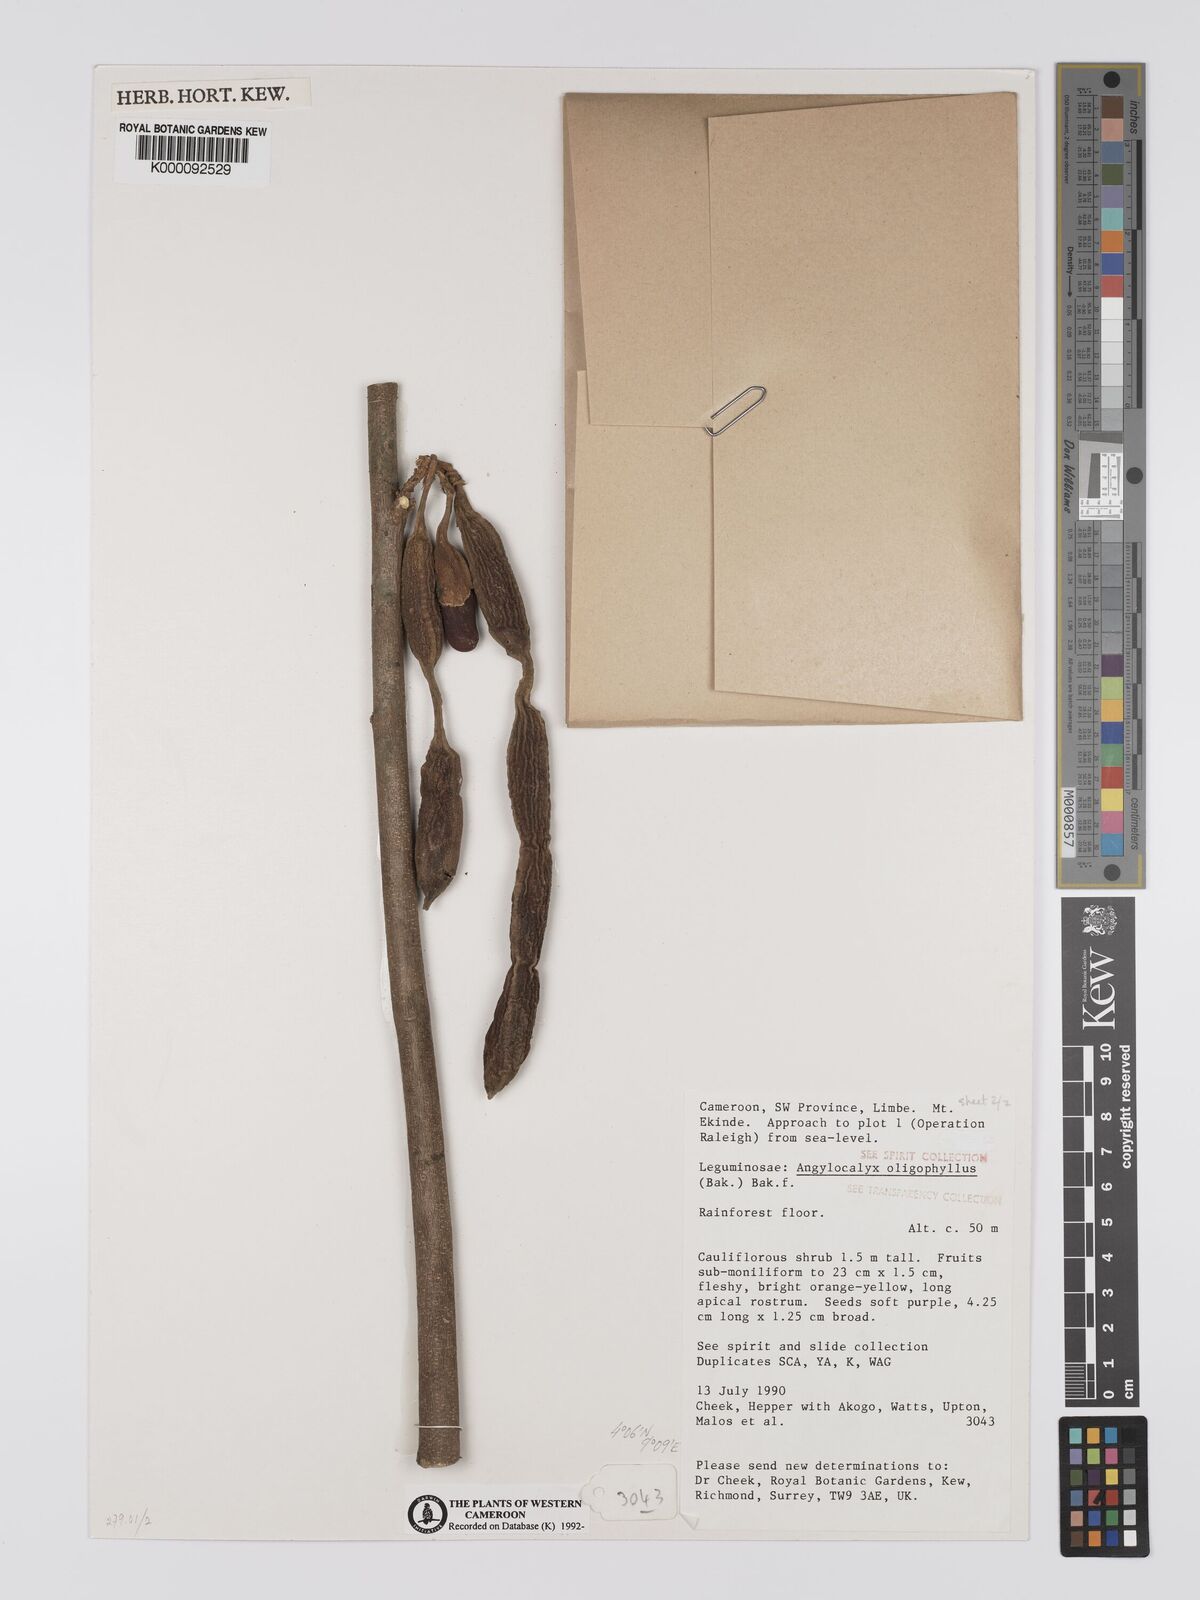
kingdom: Plantae
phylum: Tracheophyta
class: Magnoliopsida
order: Fabales
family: Fabaceae
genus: Angylocalyx
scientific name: Angylocalyx oligophyllus
